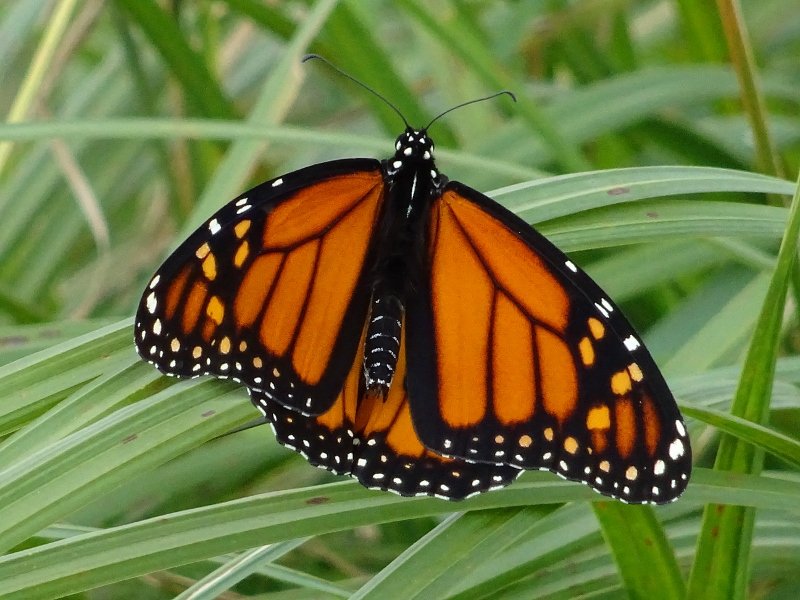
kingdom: Animalia
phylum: Arthropoda
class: Insecta
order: Lepidoptera
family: Nymphalidae
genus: Danaus
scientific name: Danaus plexippus
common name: Monarch
